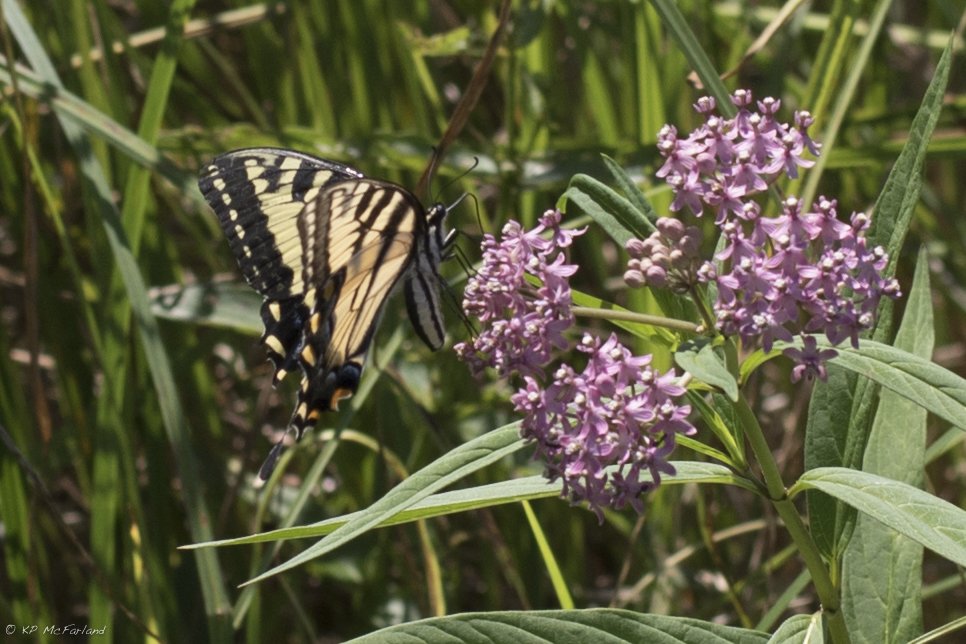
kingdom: Animalia
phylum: Arthropoda
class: Insecta
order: Lepidoptera
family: Papilionidae
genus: Pterourus
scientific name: Pterourus
